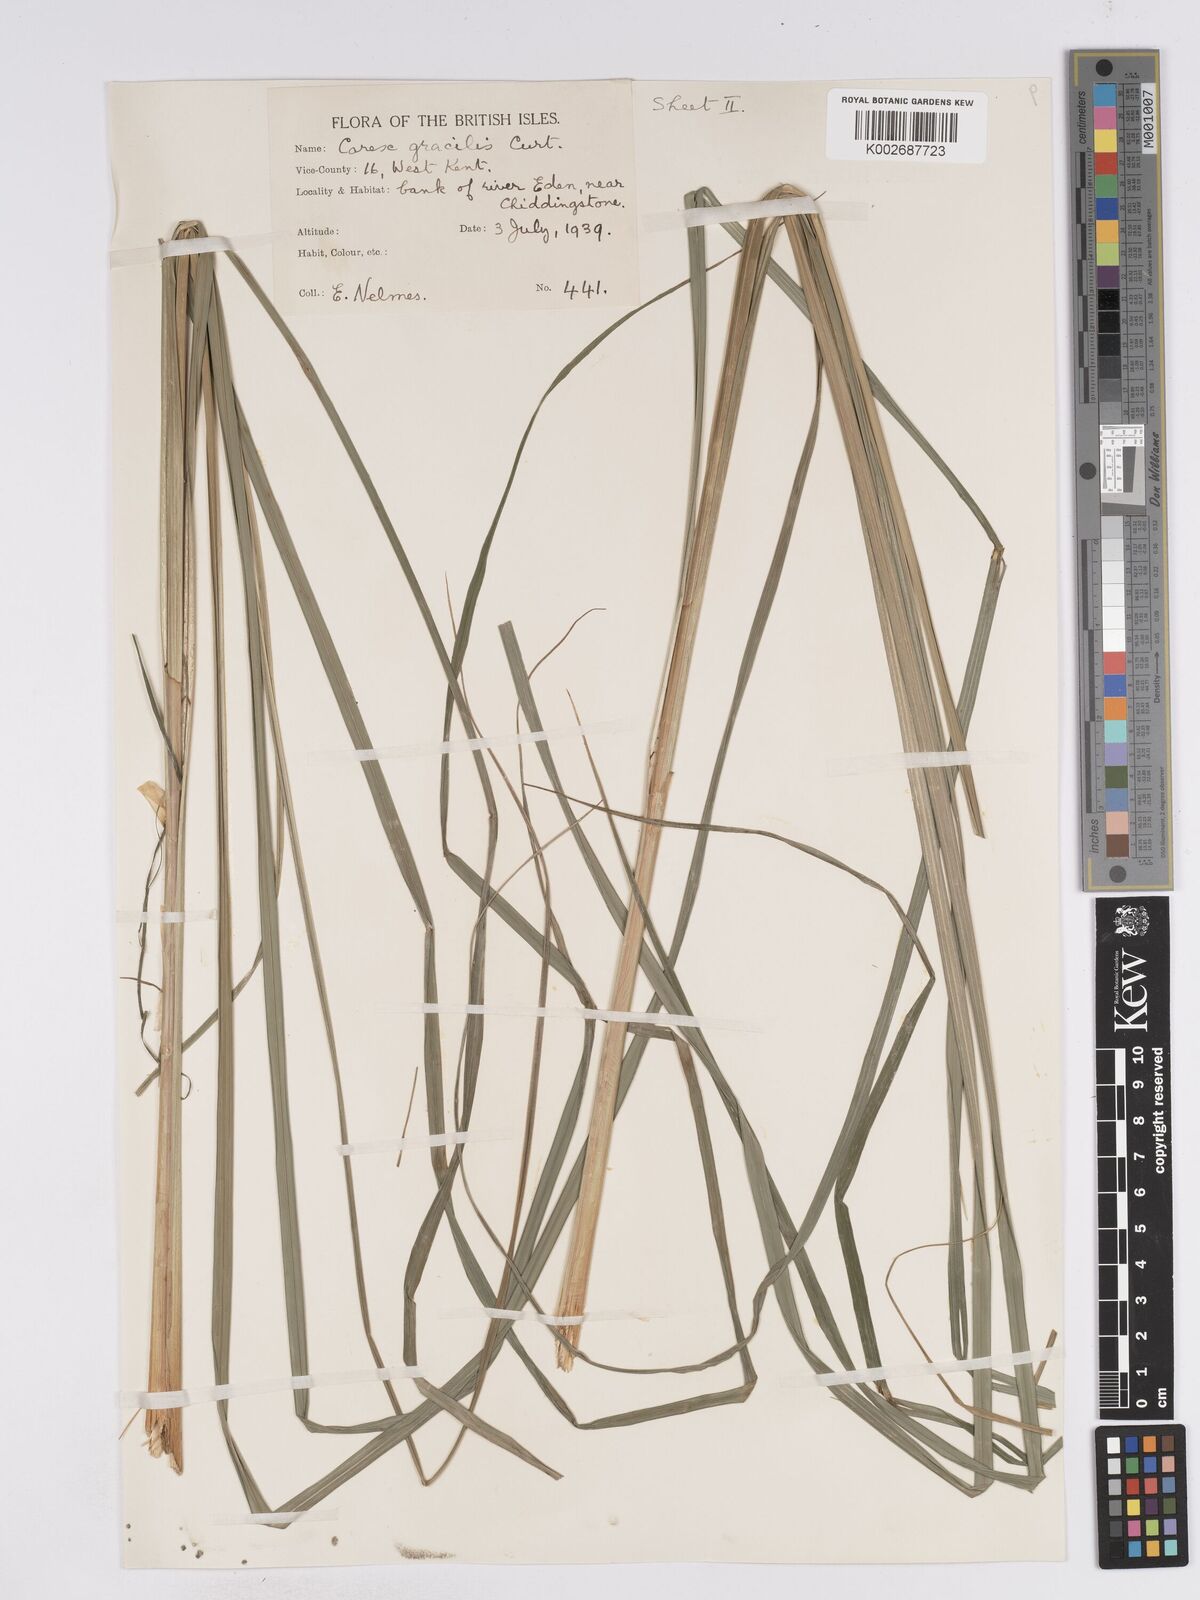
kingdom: Plantae
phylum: Tracheophyta
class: Liliopsida
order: Poales
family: Cyperaceae
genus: Carex
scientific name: Carex acuta
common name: Slender tufted-sedge
